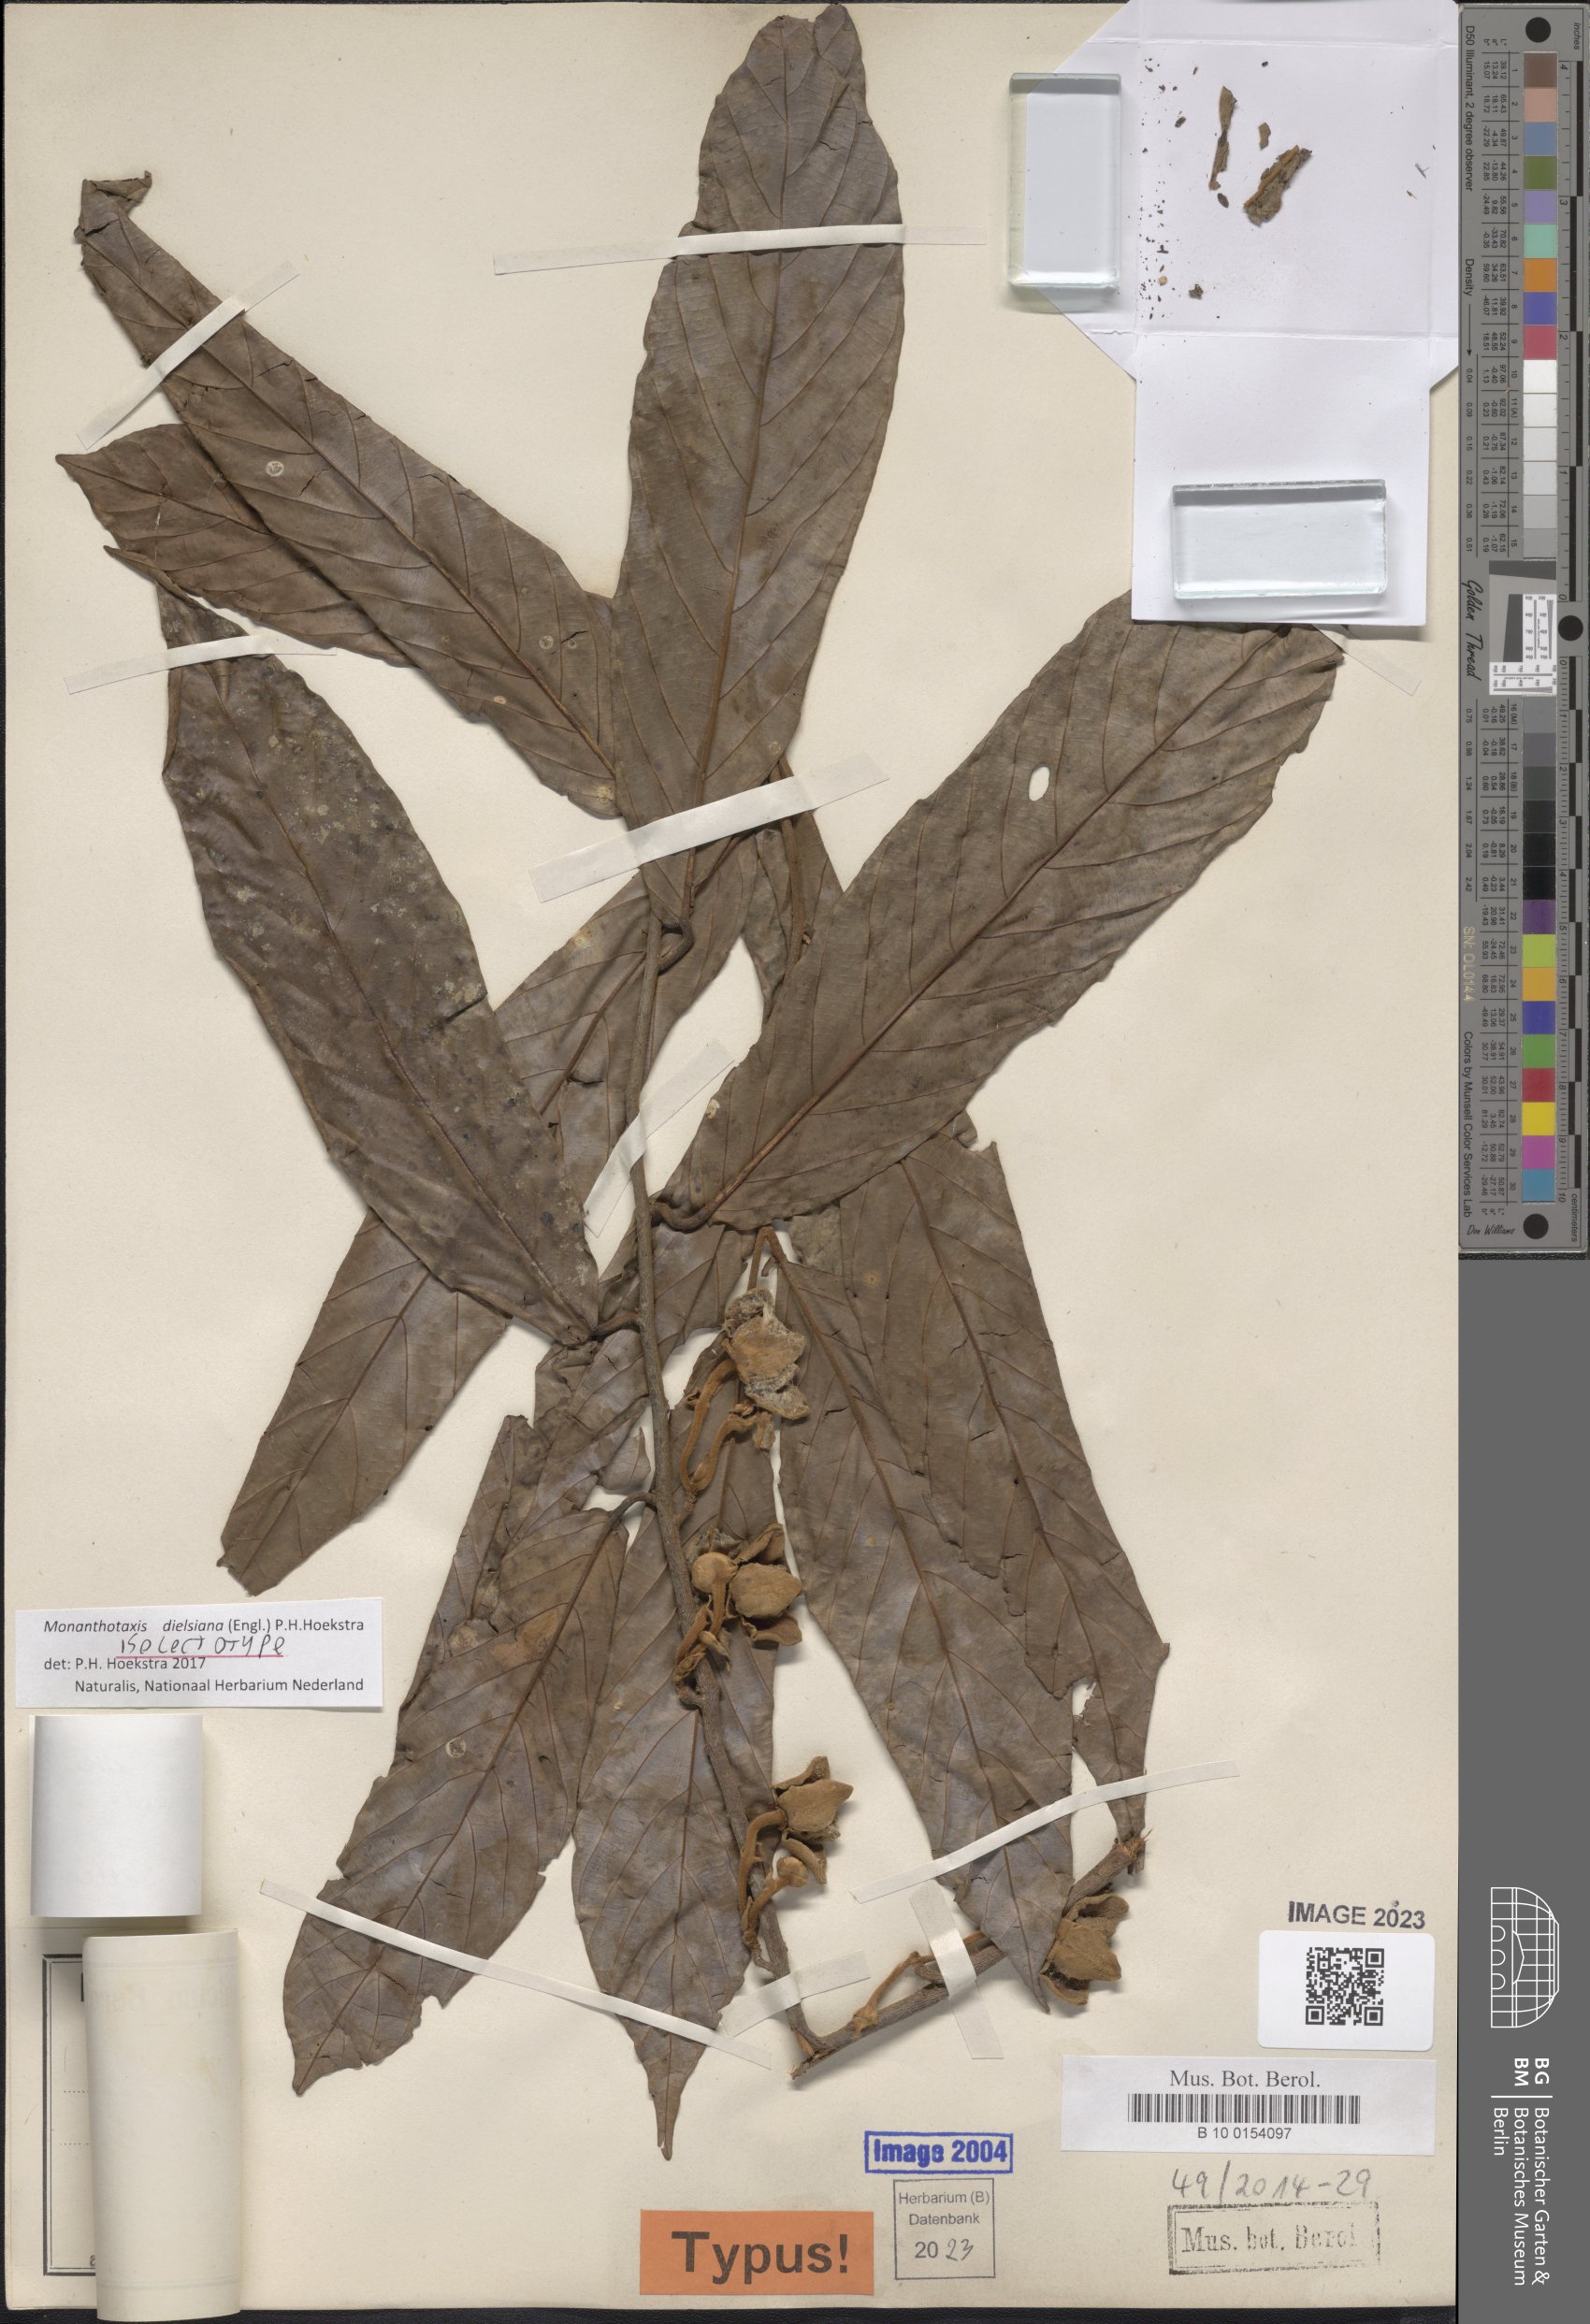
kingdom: Plantae
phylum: Tracheophyta
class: Magnoliopsida
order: Magnoliales
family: Annonaceae
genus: Friesodielsia
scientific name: Friesodielsia dielsiana
